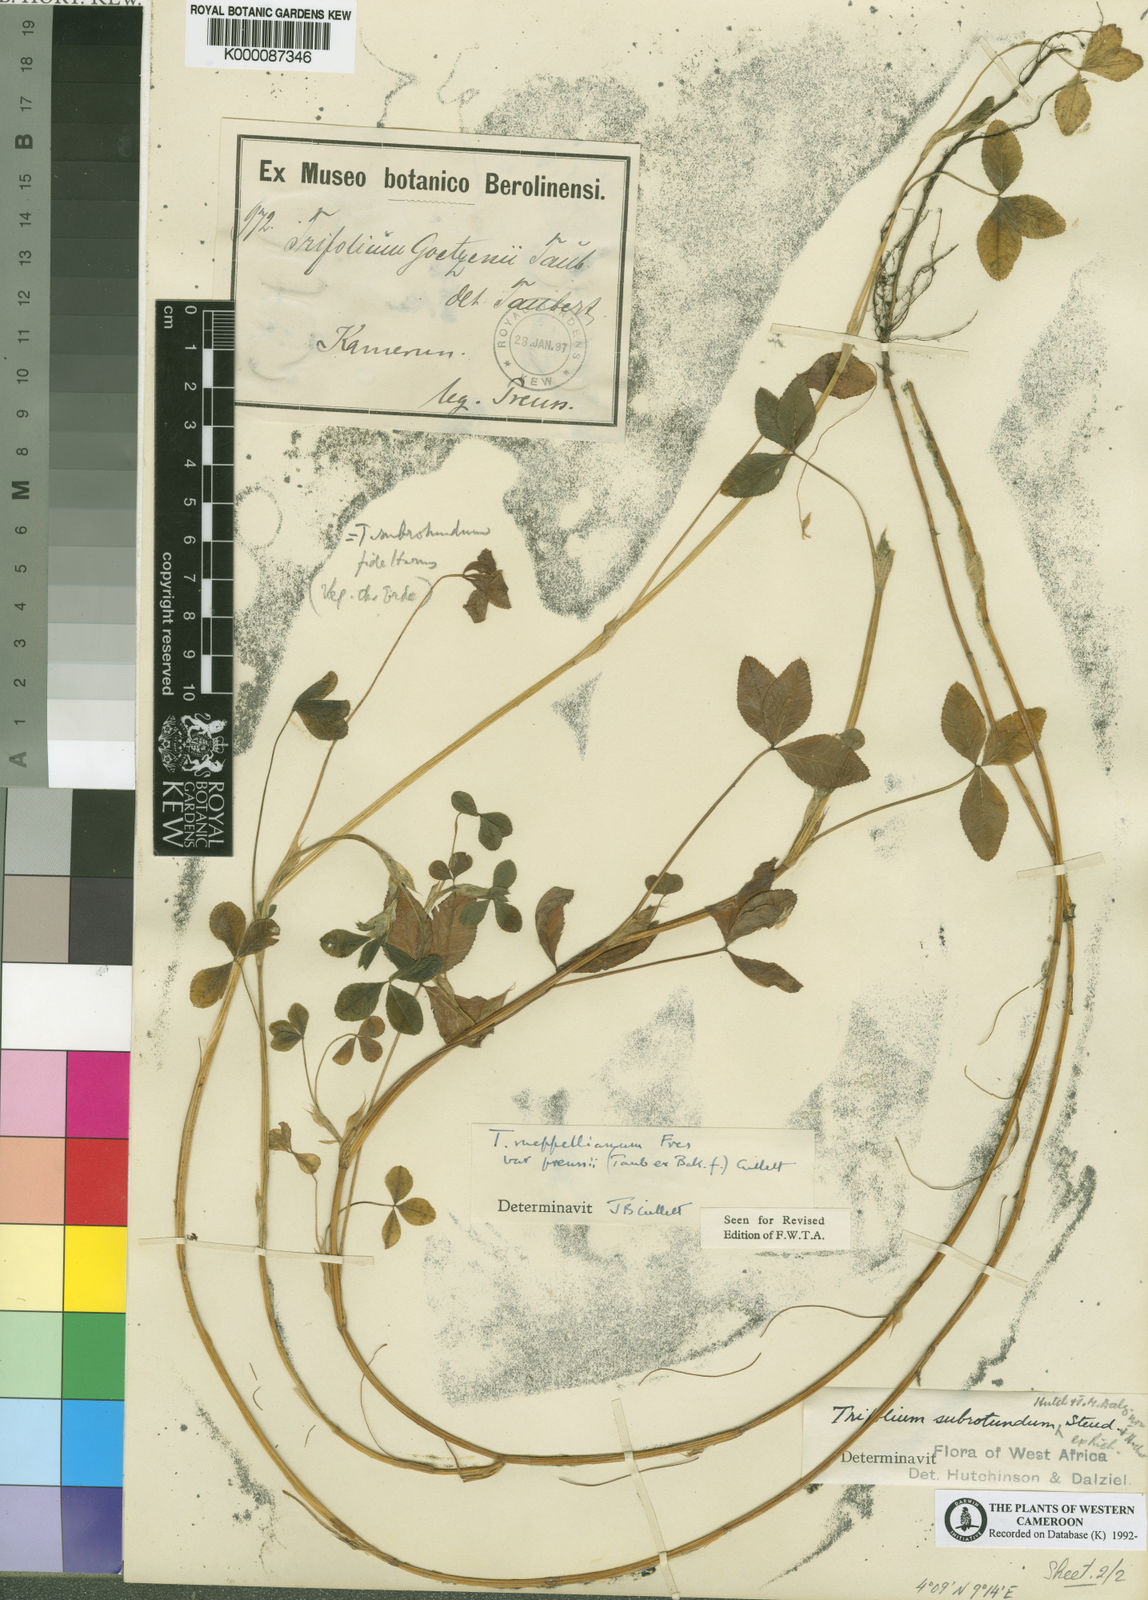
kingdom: Plantae
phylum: Tracheophyta
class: Magnoliopsida
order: Fabales
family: Fabaceae
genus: Trifolium
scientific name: Trifolium rueppellianum
